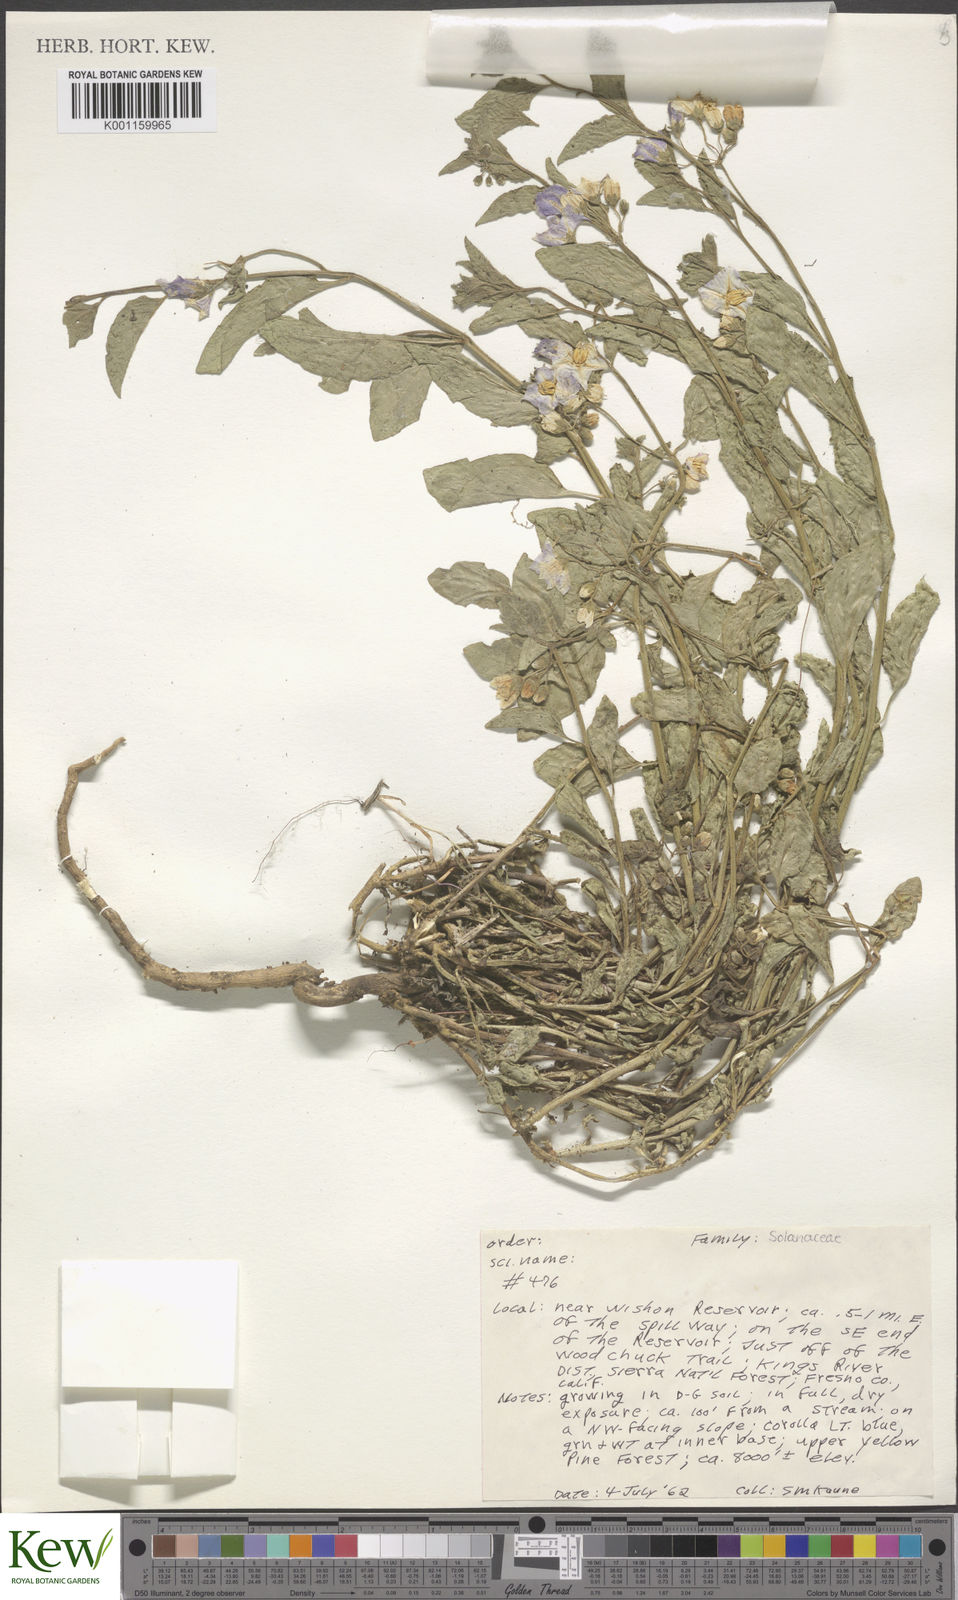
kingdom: Plantae
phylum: Tracheophyta
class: Magnoliopsida
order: Solanales
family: Solanaceae
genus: Solanum
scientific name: Solanum umbelliferum
